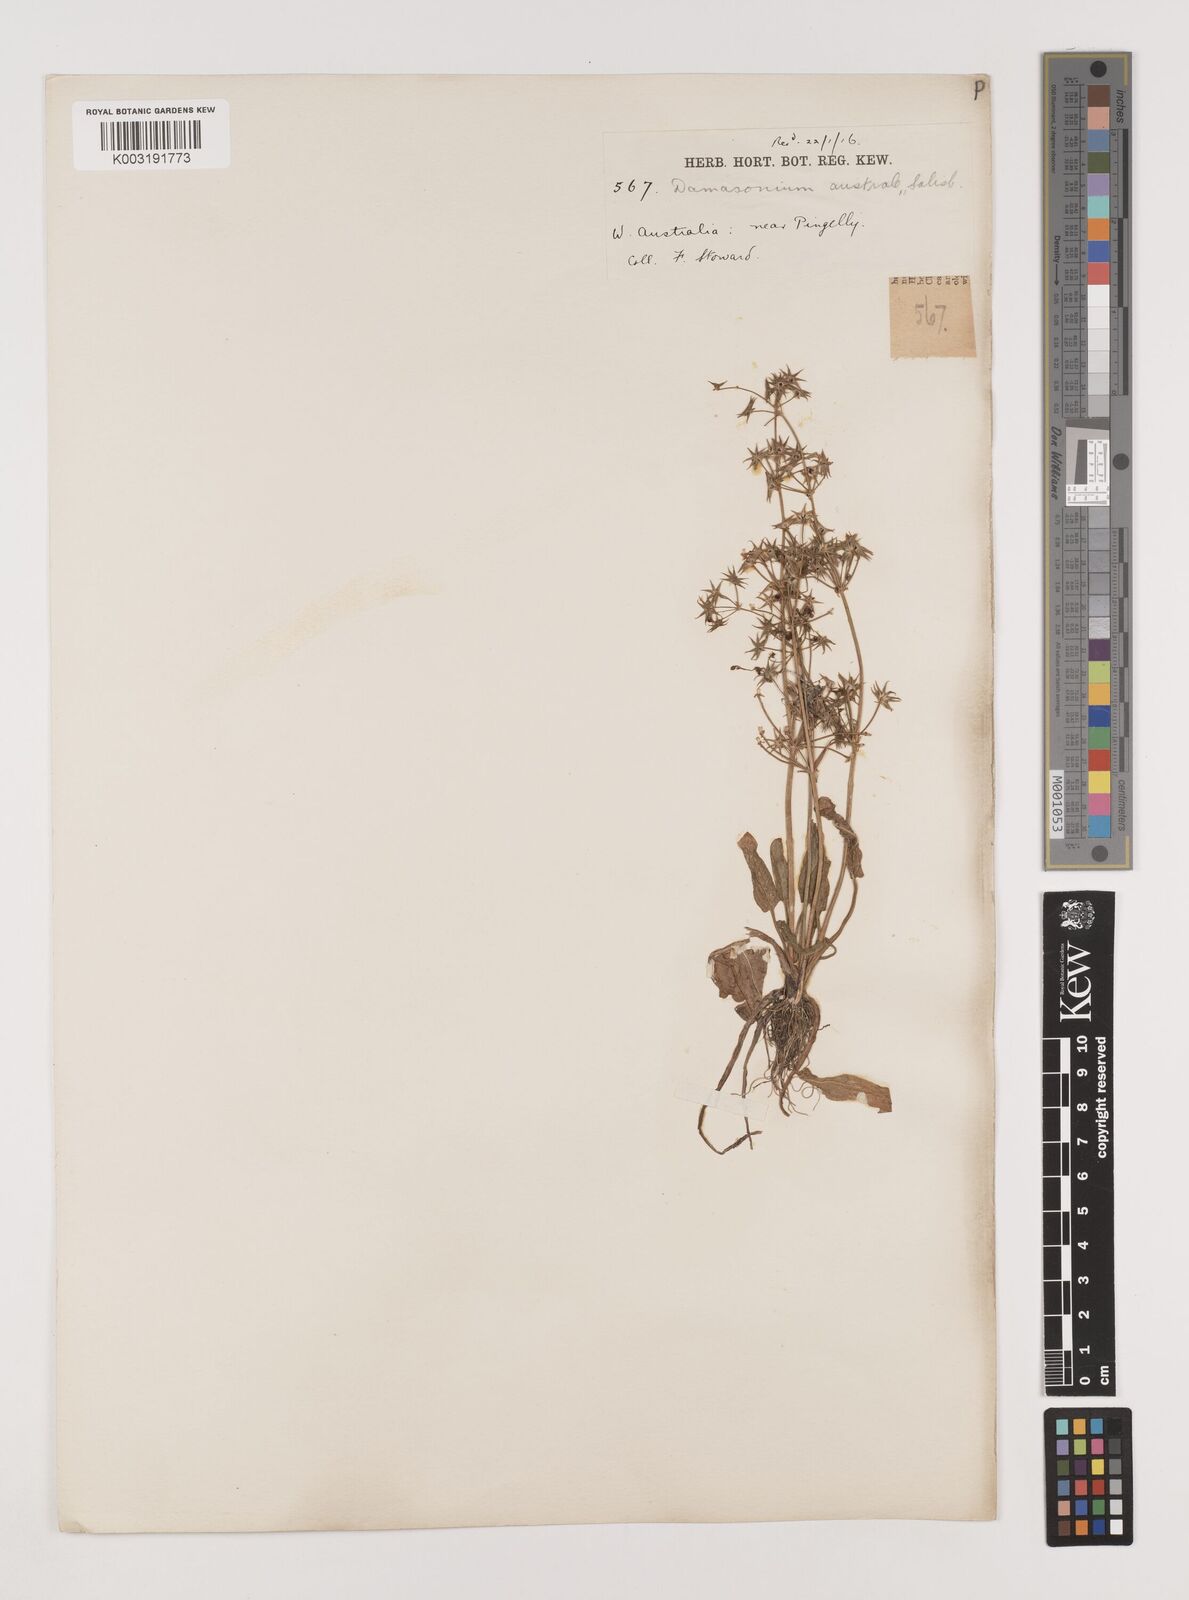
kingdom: Plantae
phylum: Tracheophyta
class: Liliopsida
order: Alismatales
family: Alismataceae
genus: Damasonium
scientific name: Damasonium minus
